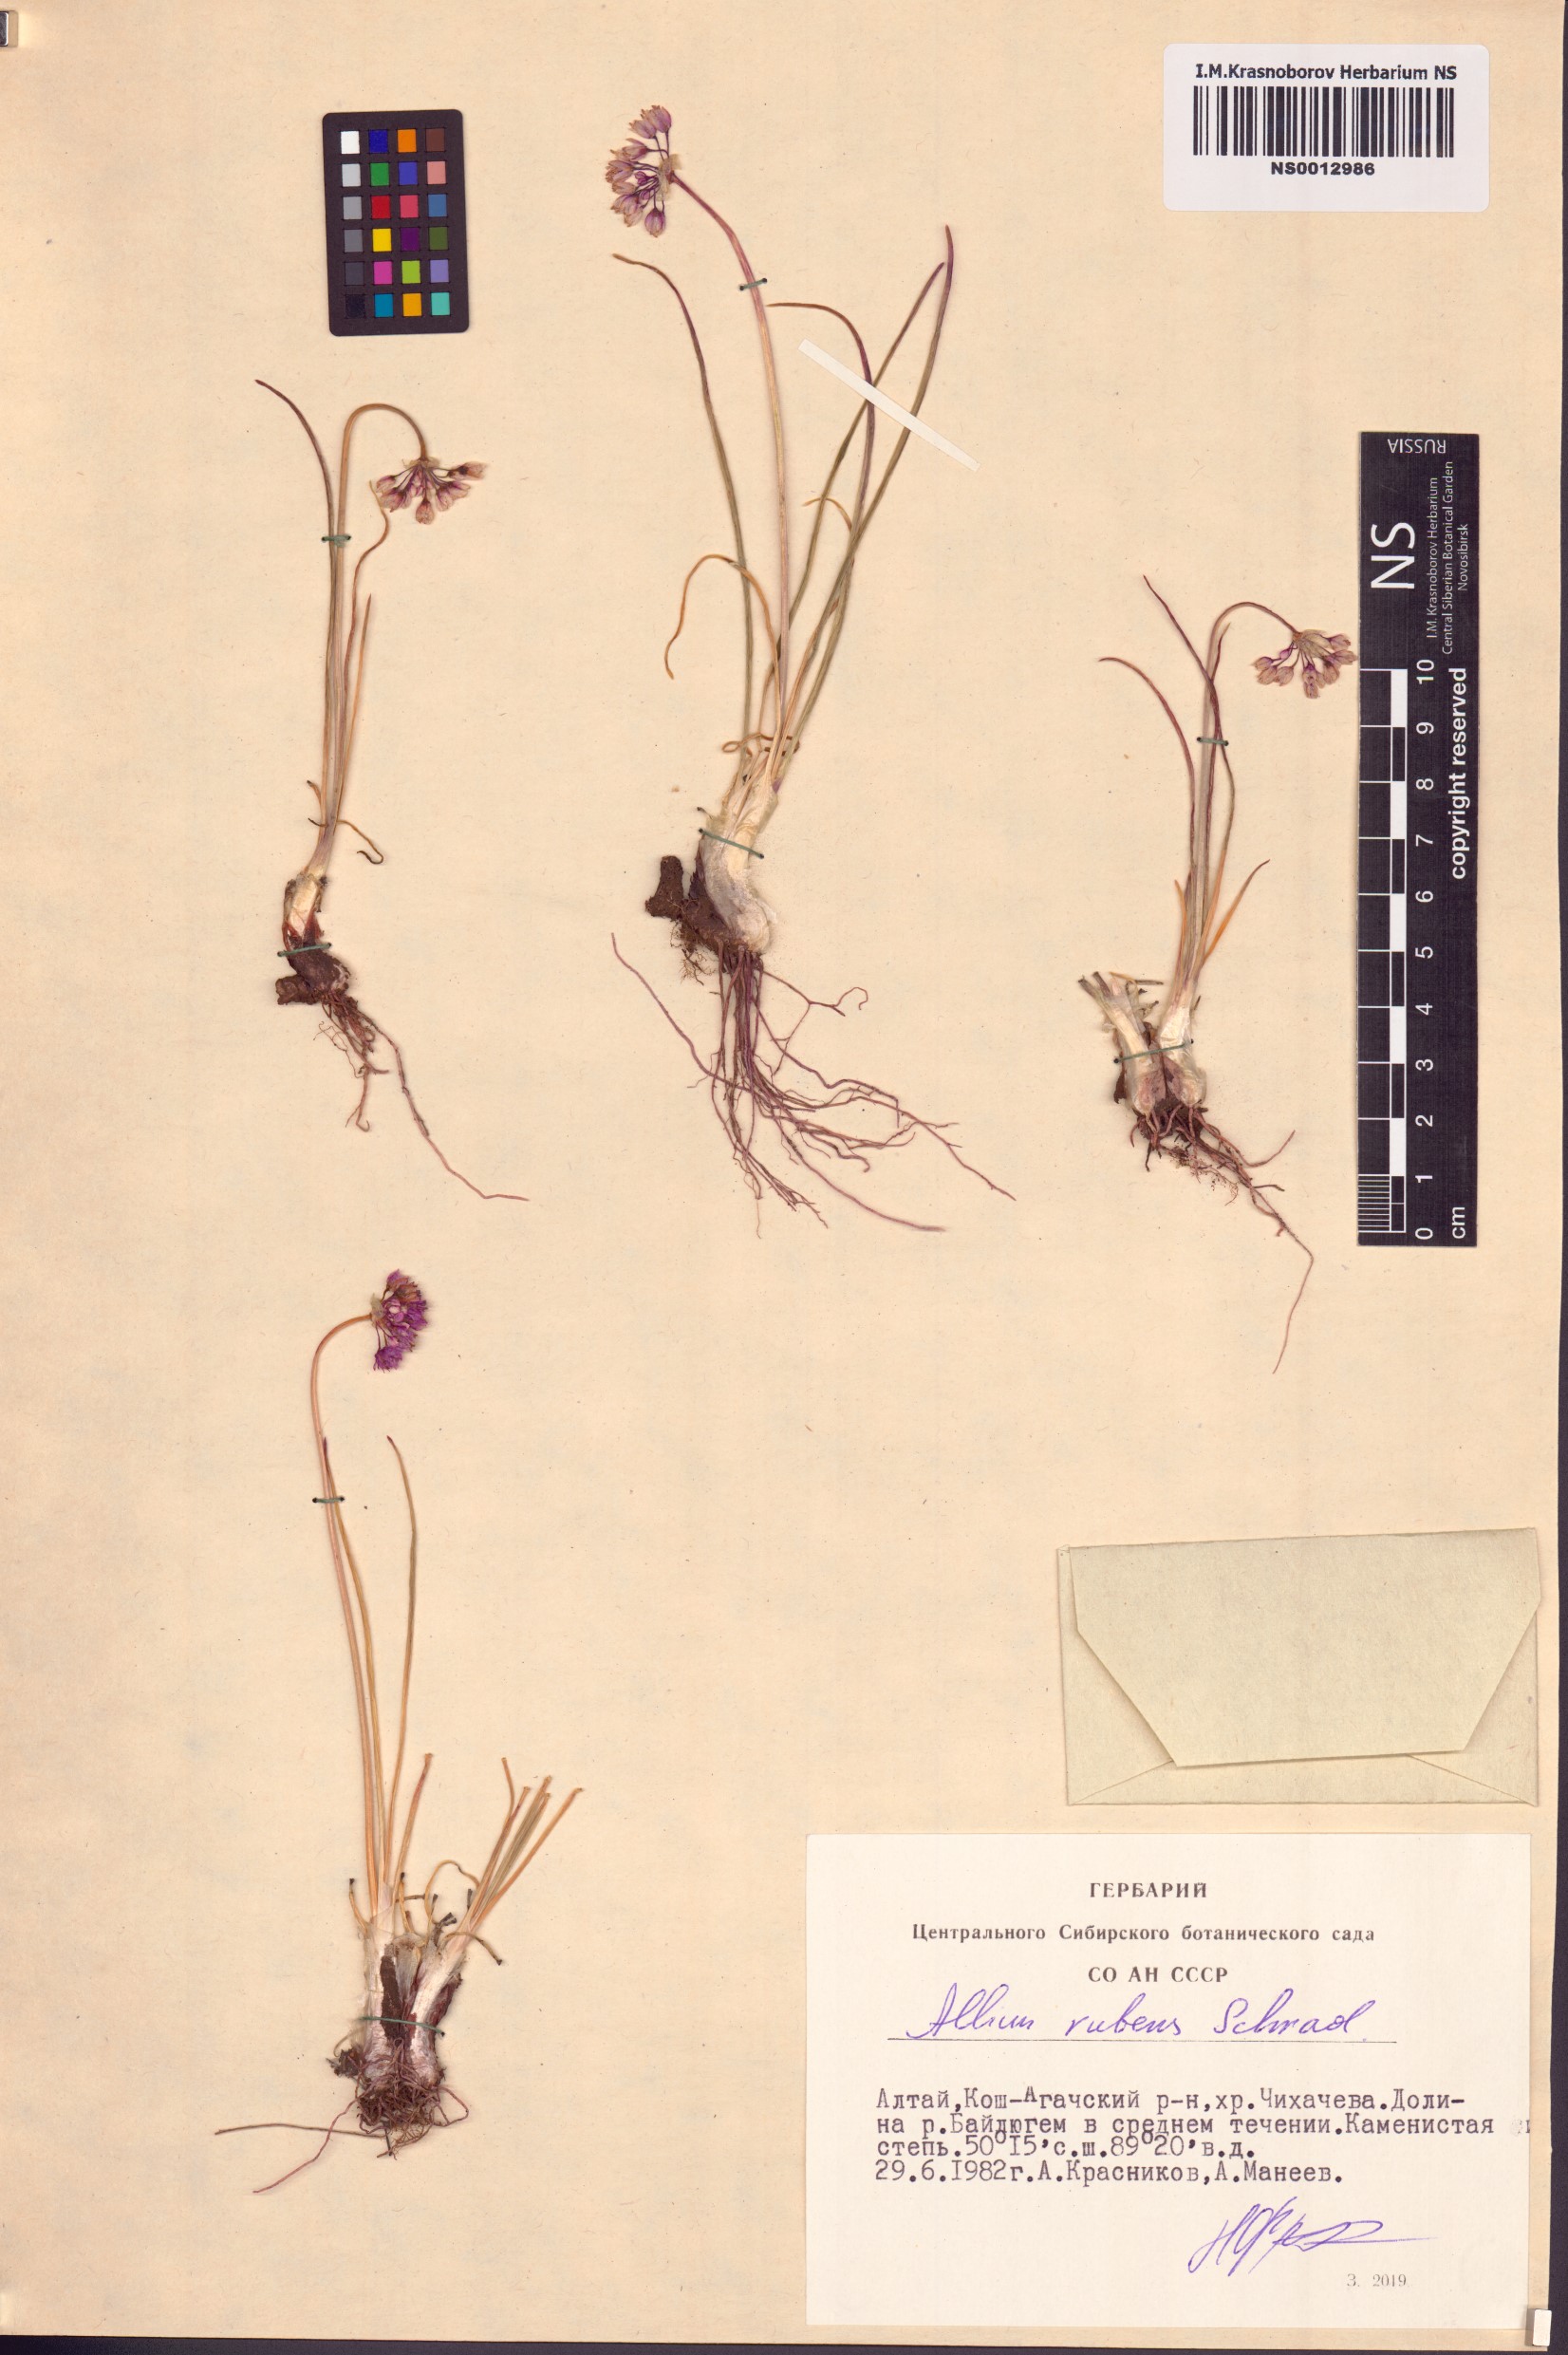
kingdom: Plantae
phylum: Tracheophyta
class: Liliopsida
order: Asparagales
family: Amaryllidaceae
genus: Allium
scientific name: Allium rubens
